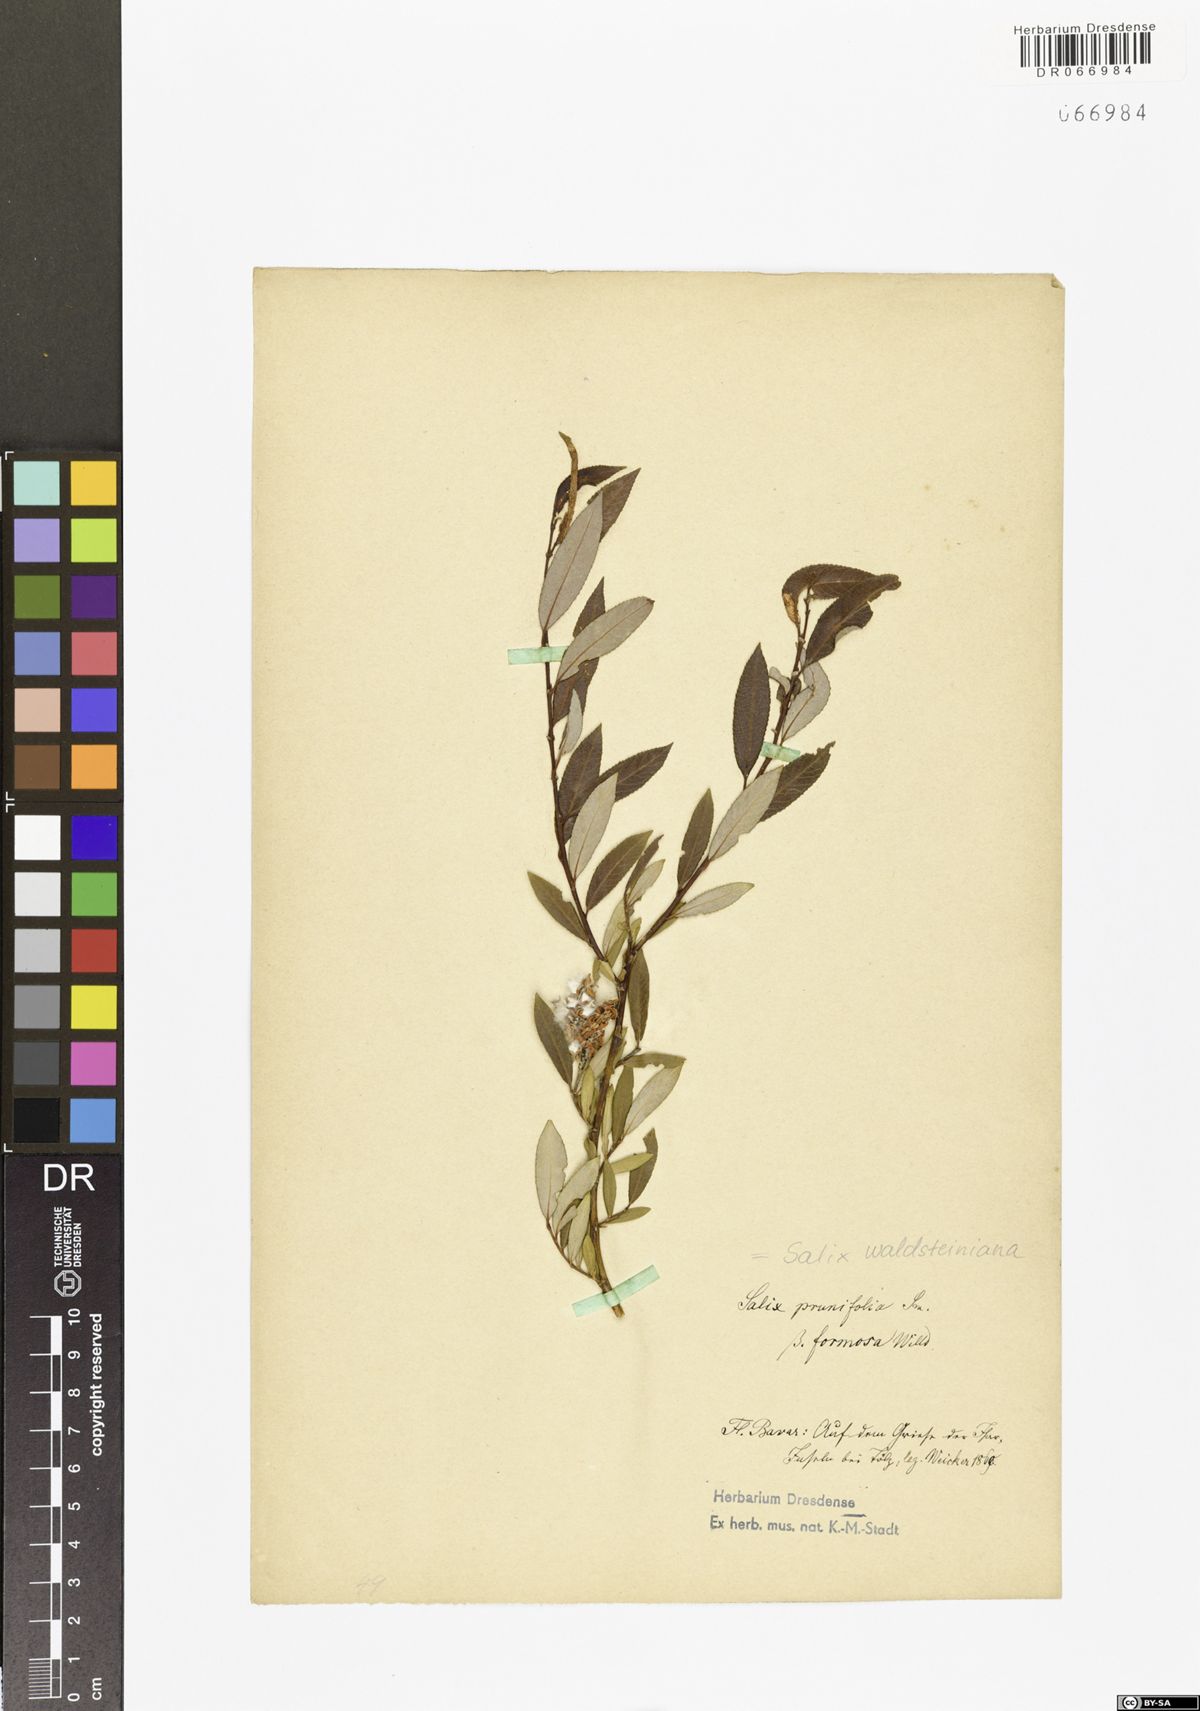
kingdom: Plantae
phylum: Tracheophyta
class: Magnoliopsida
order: Malpighiales
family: Salicaceae
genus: Salix
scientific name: Salix waldsteiniana
